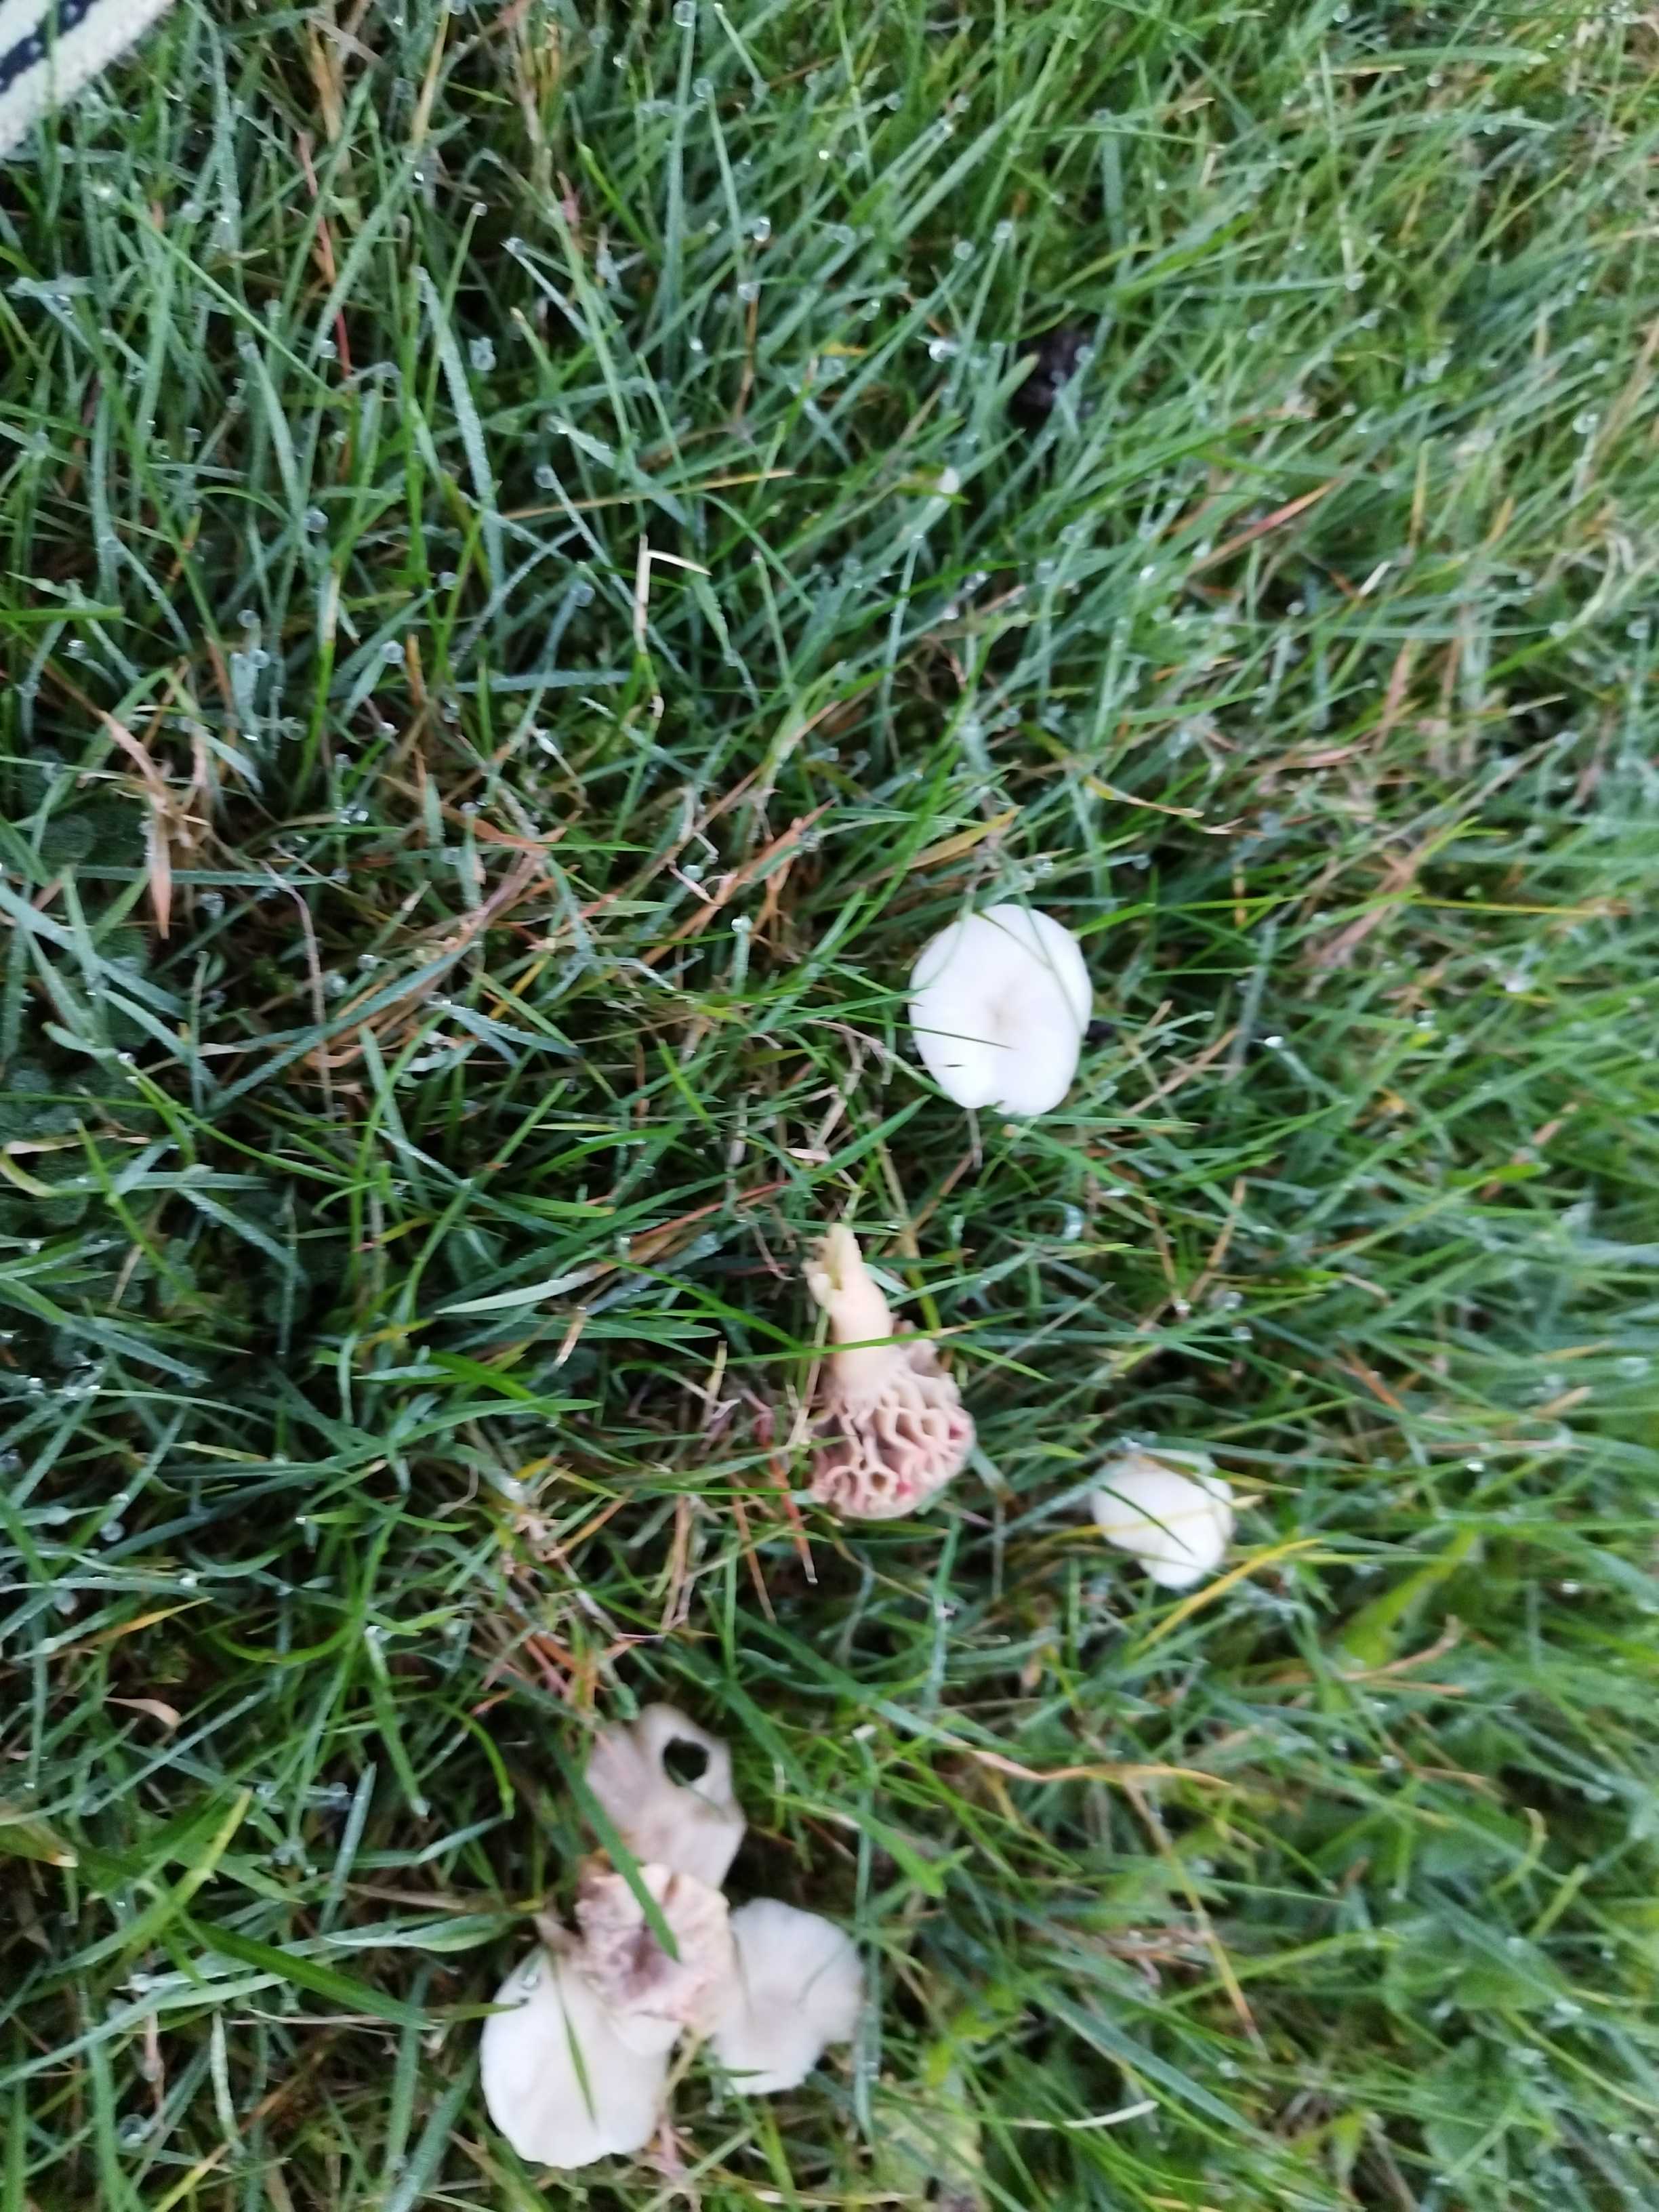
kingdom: Fungi
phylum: Basidiomycota
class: Agaricomycetes
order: Agaricales
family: Hydnangiaceae
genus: Laccaria
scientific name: Laccaria
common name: ametysthat
